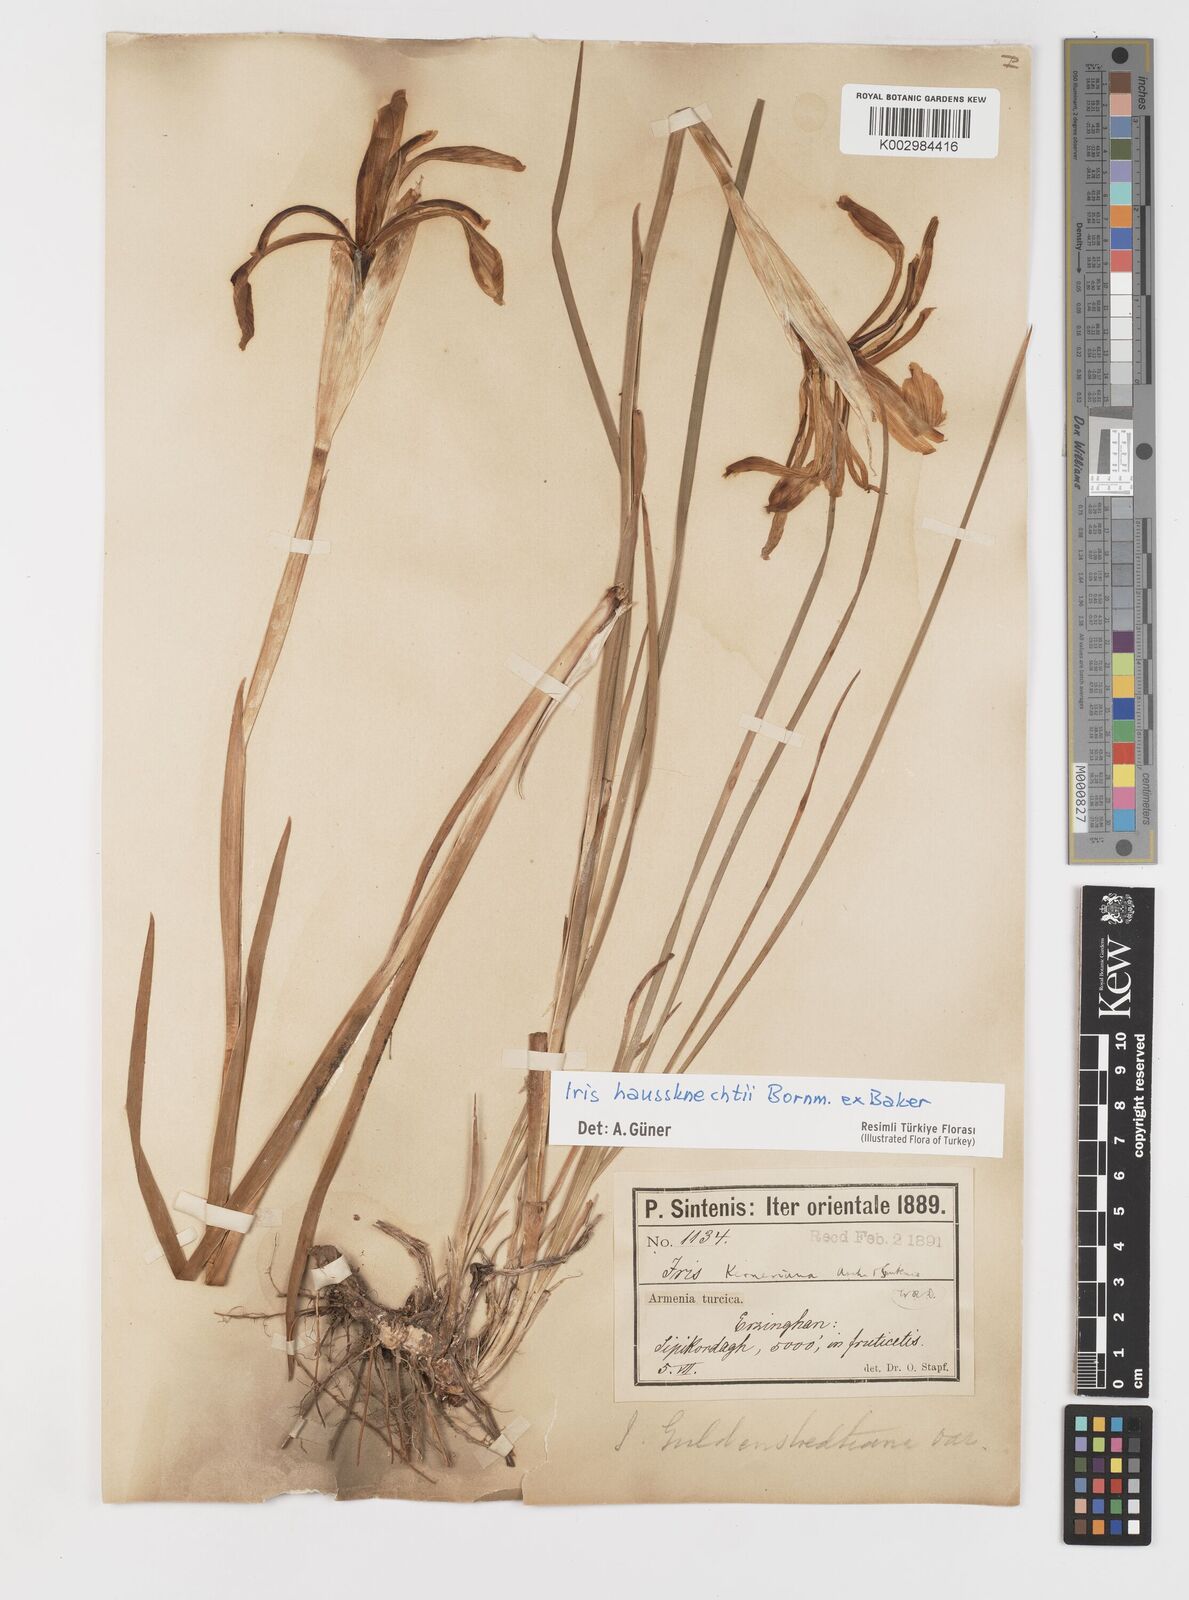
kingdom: Plantae
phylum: Tracheophyta
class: Liliopsida
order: Asparagales
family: Iridaceae
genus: Iris
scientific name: Iris haussknechtii
